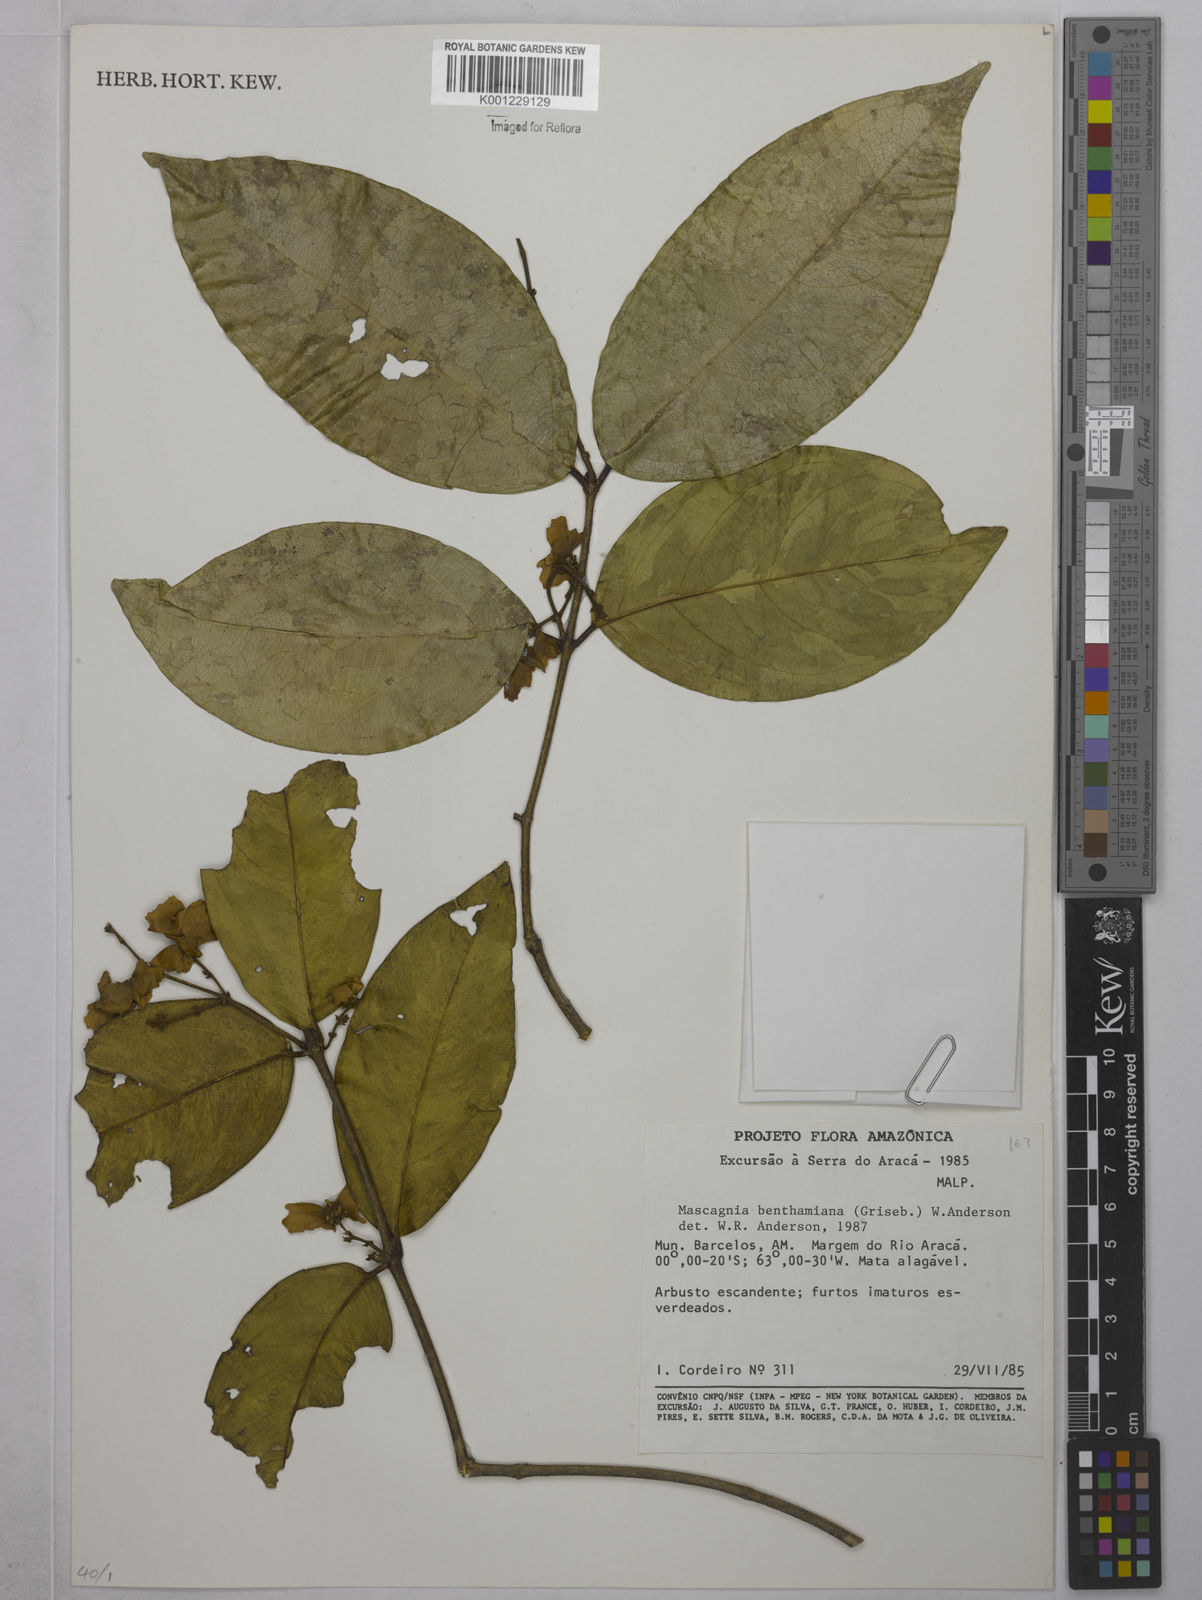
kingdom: Plantae
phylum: Tracheophyta
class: Magnoliopsida
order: Malpighiales
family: Malpighiaceae
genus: Niedenzuella
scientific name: Niedenzuella stannea
